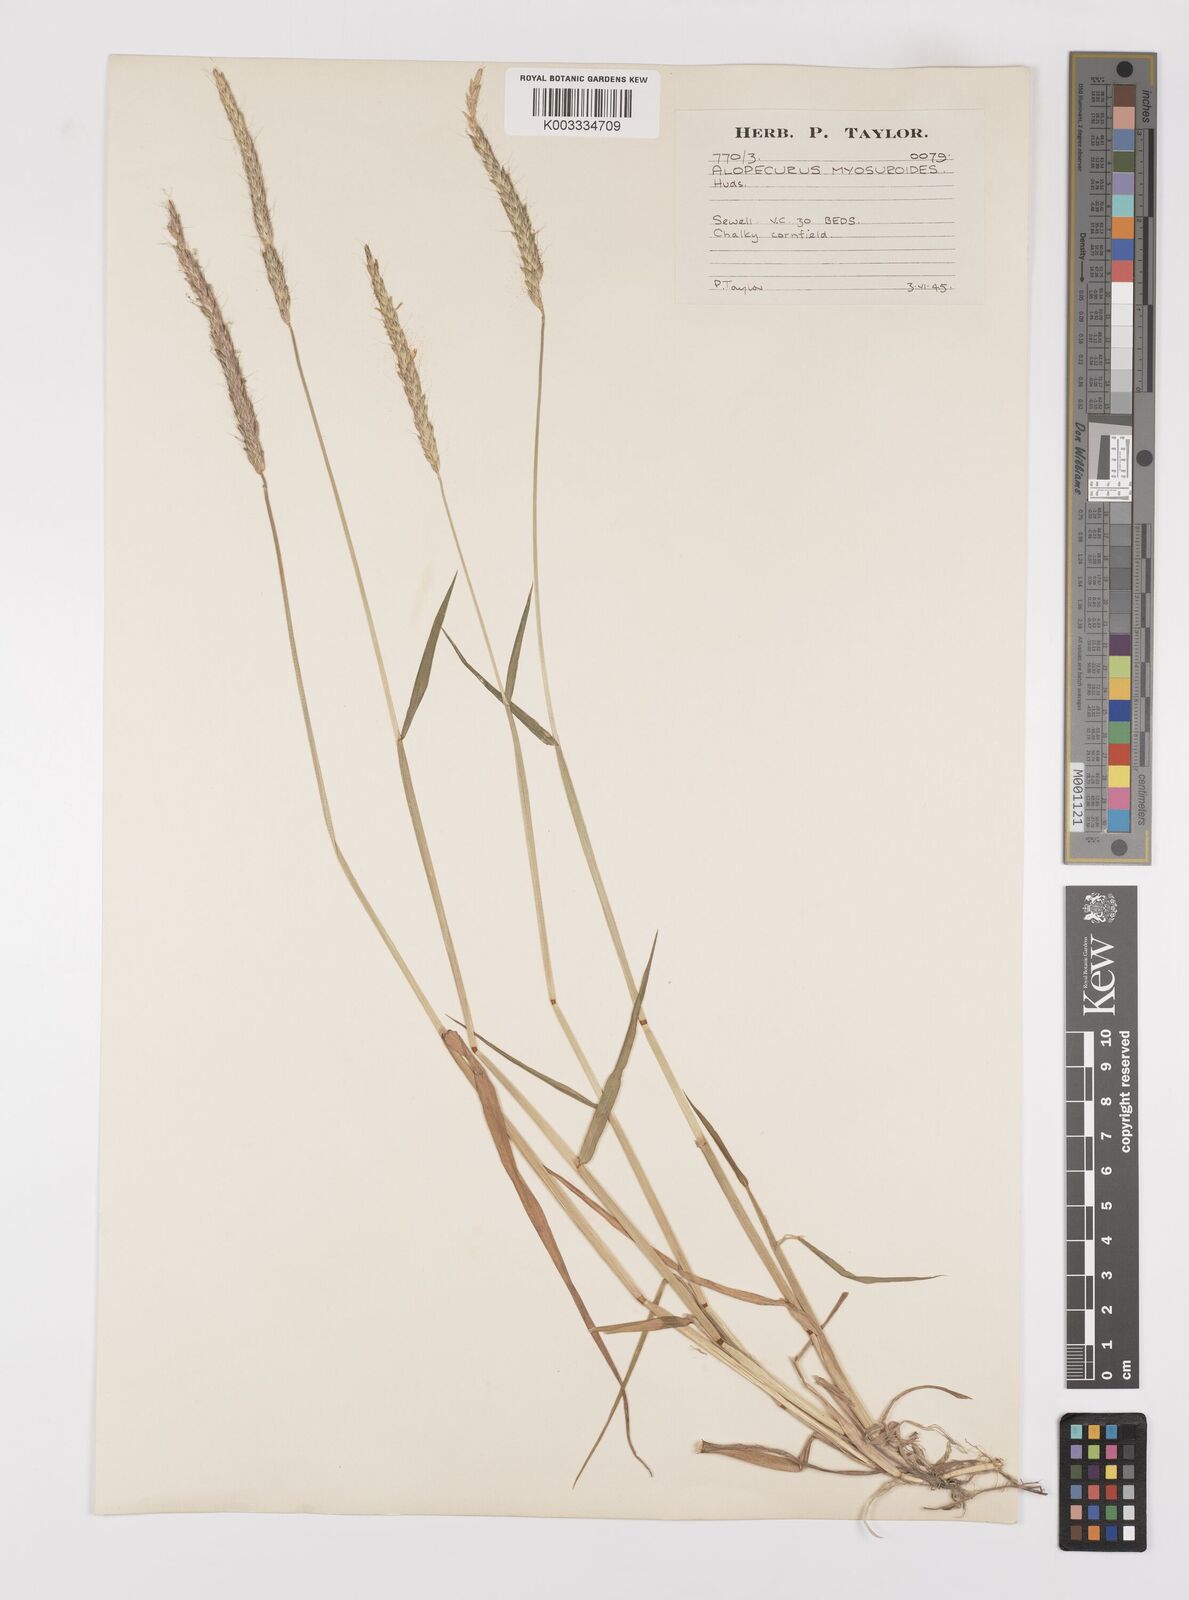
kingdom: Plantae
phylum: Tracheophyta
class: Liliopsida
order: Poales
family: Poaceae
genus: Alopecurus
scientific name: Alopecurus myosuroides
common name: Black-grass
